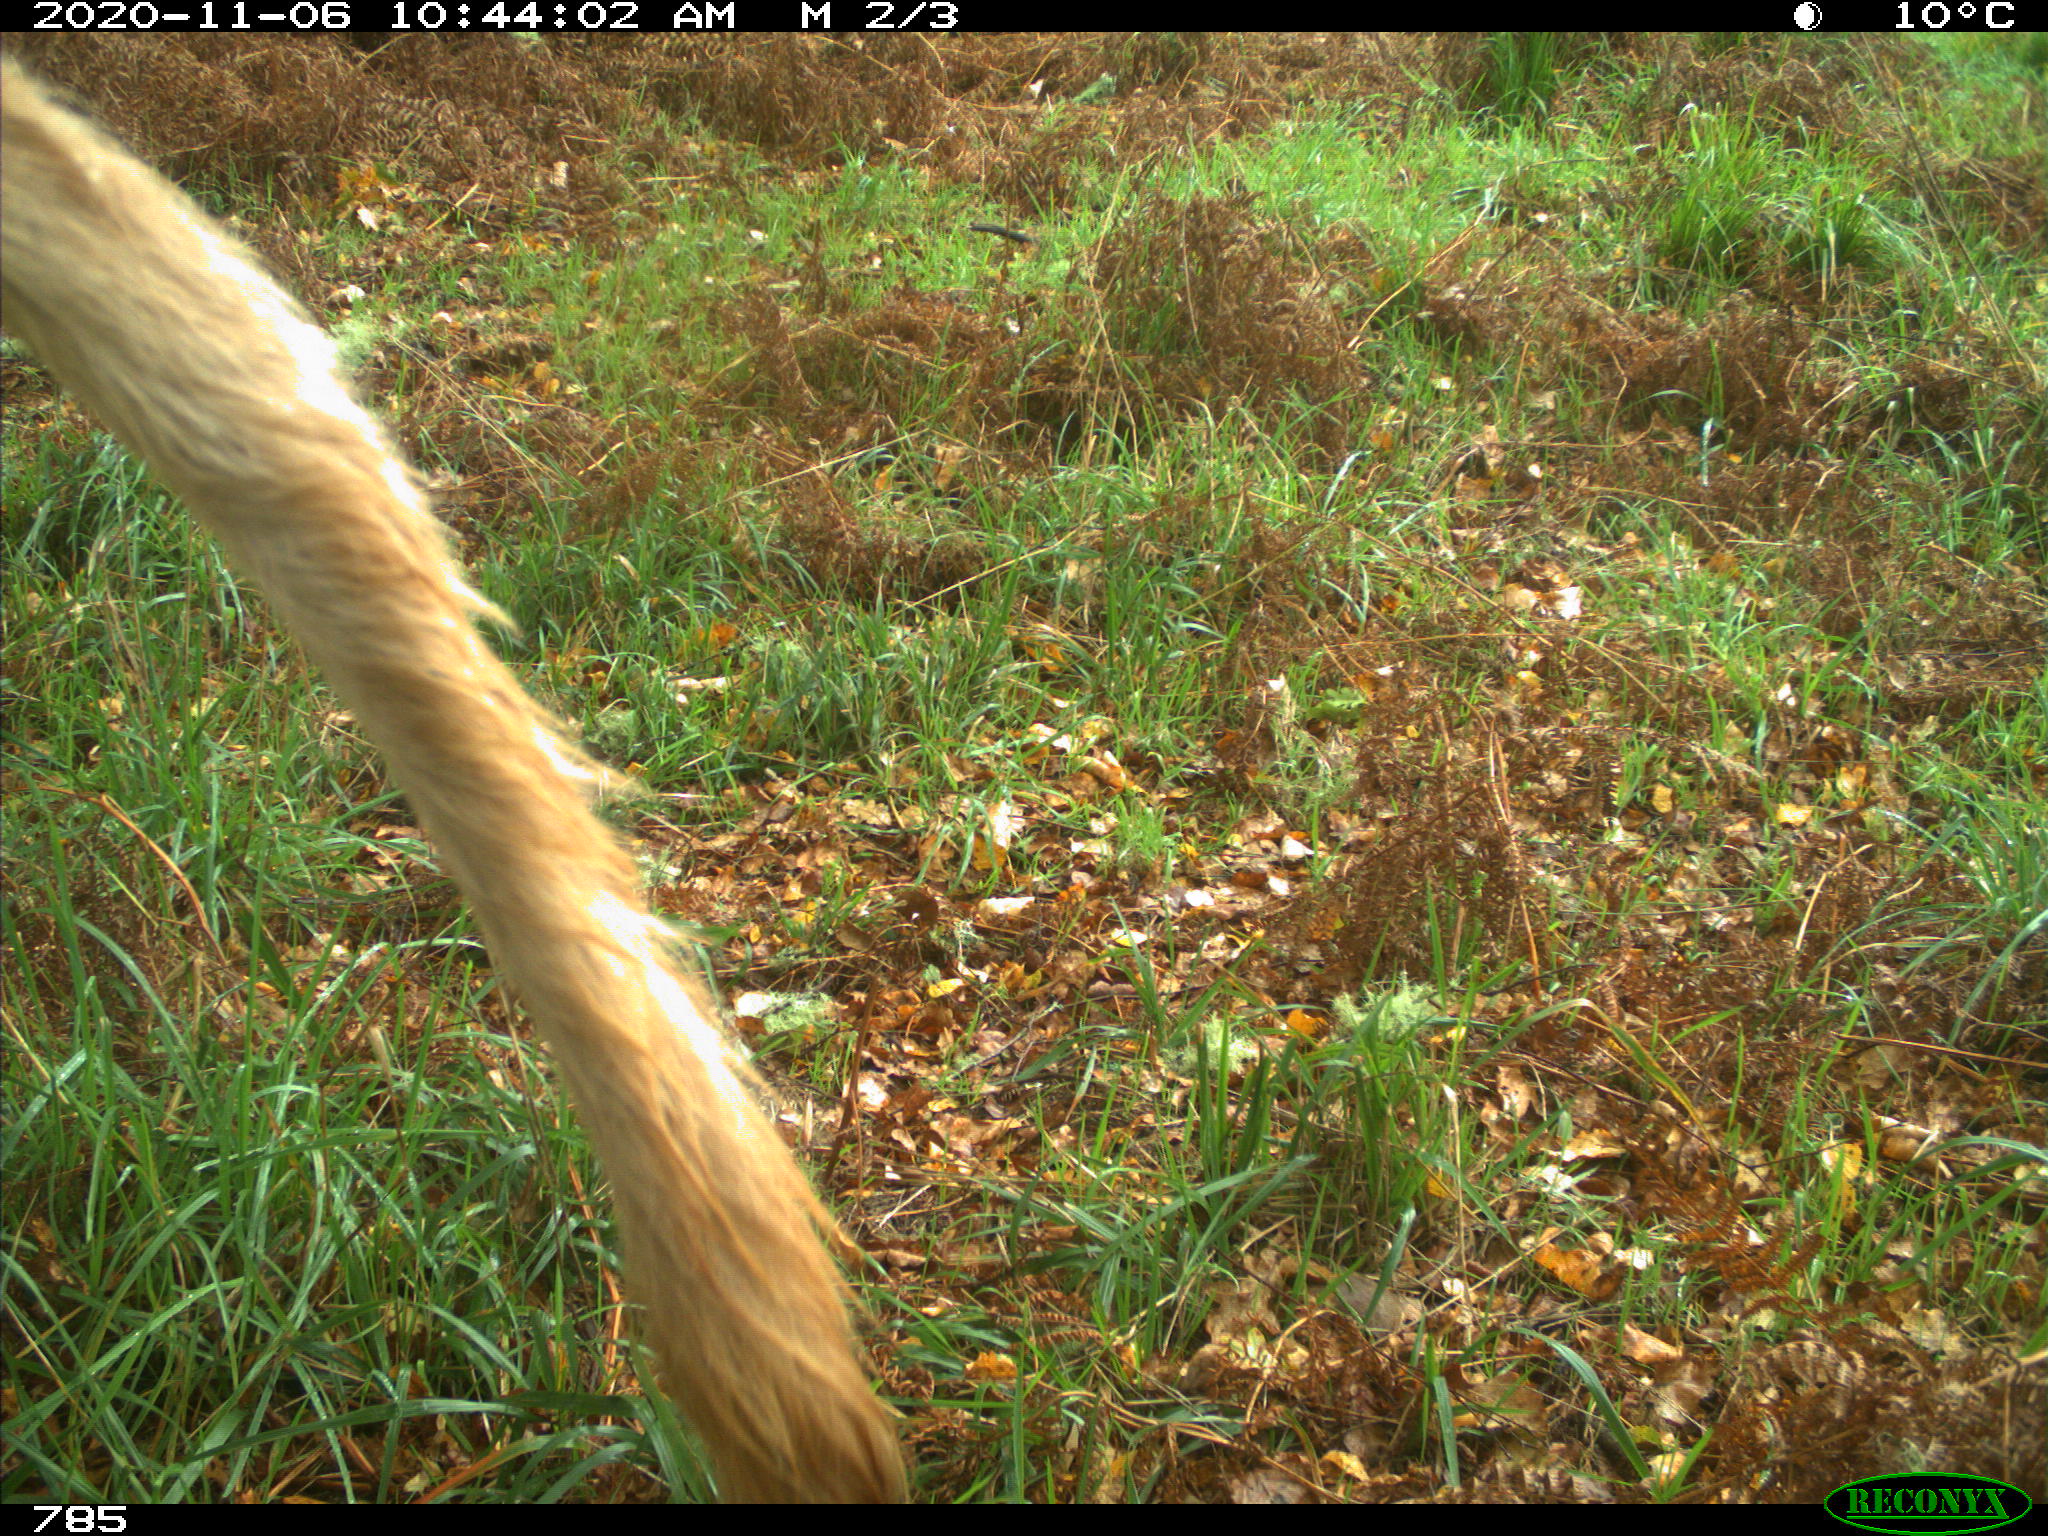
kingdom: Animalia
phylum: Chordata
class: Mammalia
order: Artiodactyla
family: Bovidae
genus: Bos
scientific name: Bos taurus
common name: Domesticated cattle
